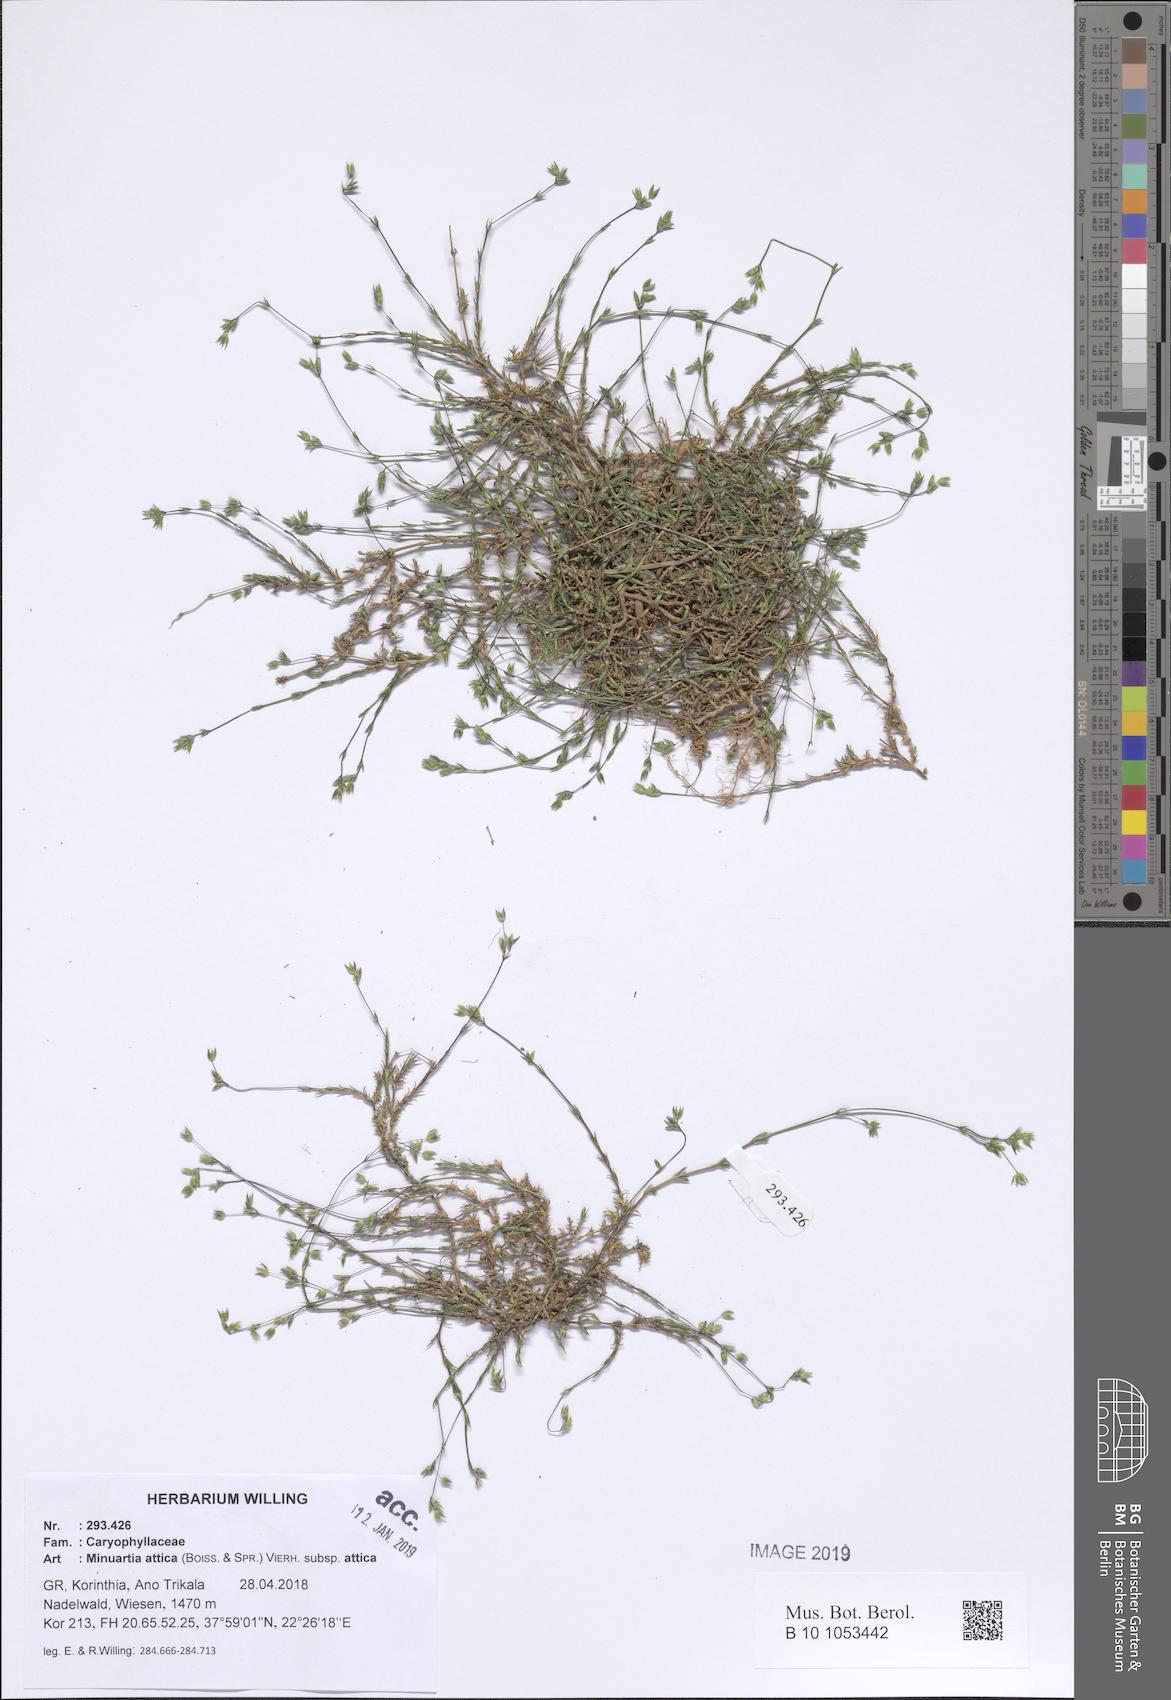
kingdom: Plantae
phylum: Tracheophyta
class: Magnoliopsida
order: Caryophyllales
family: Caryophyllaceae
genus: Sabulina
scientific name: Sabulina attica
